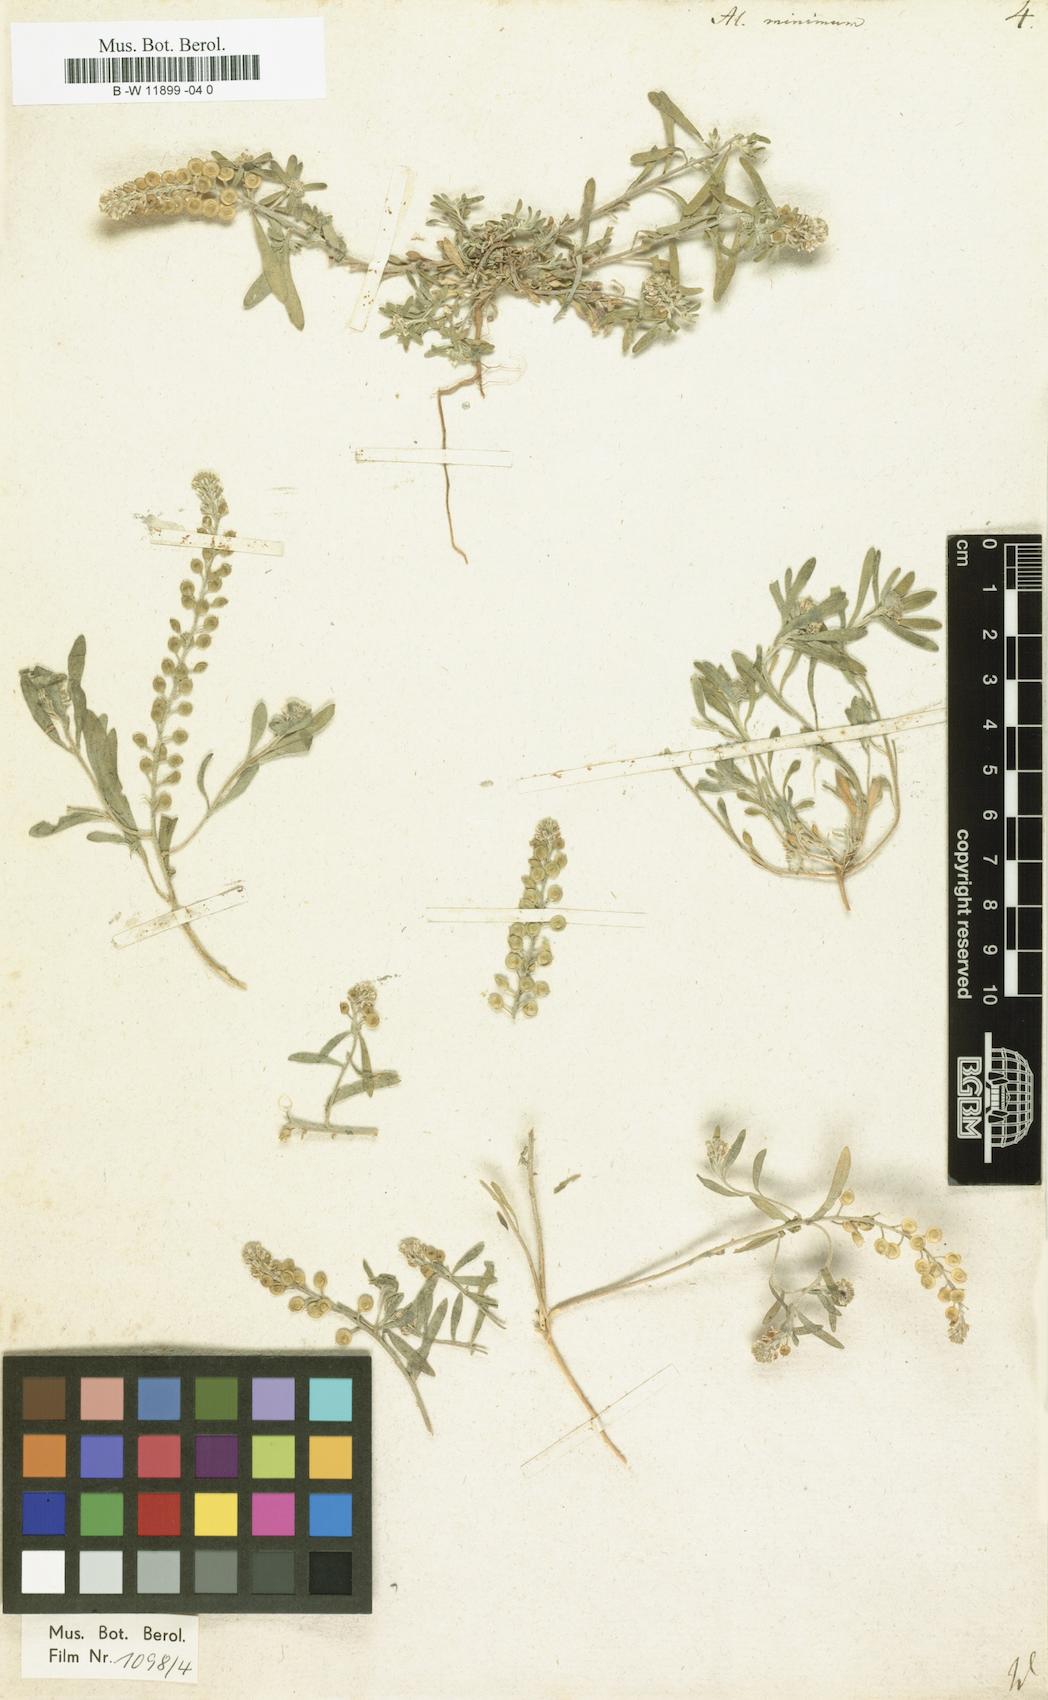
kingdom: Plantae
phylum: Tracheophyta
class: Magnoliopsida
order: Brassicales
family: Brassicaceae
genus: Alyssum
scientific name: Alyssum turkestanicum
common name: Desert alyssum
